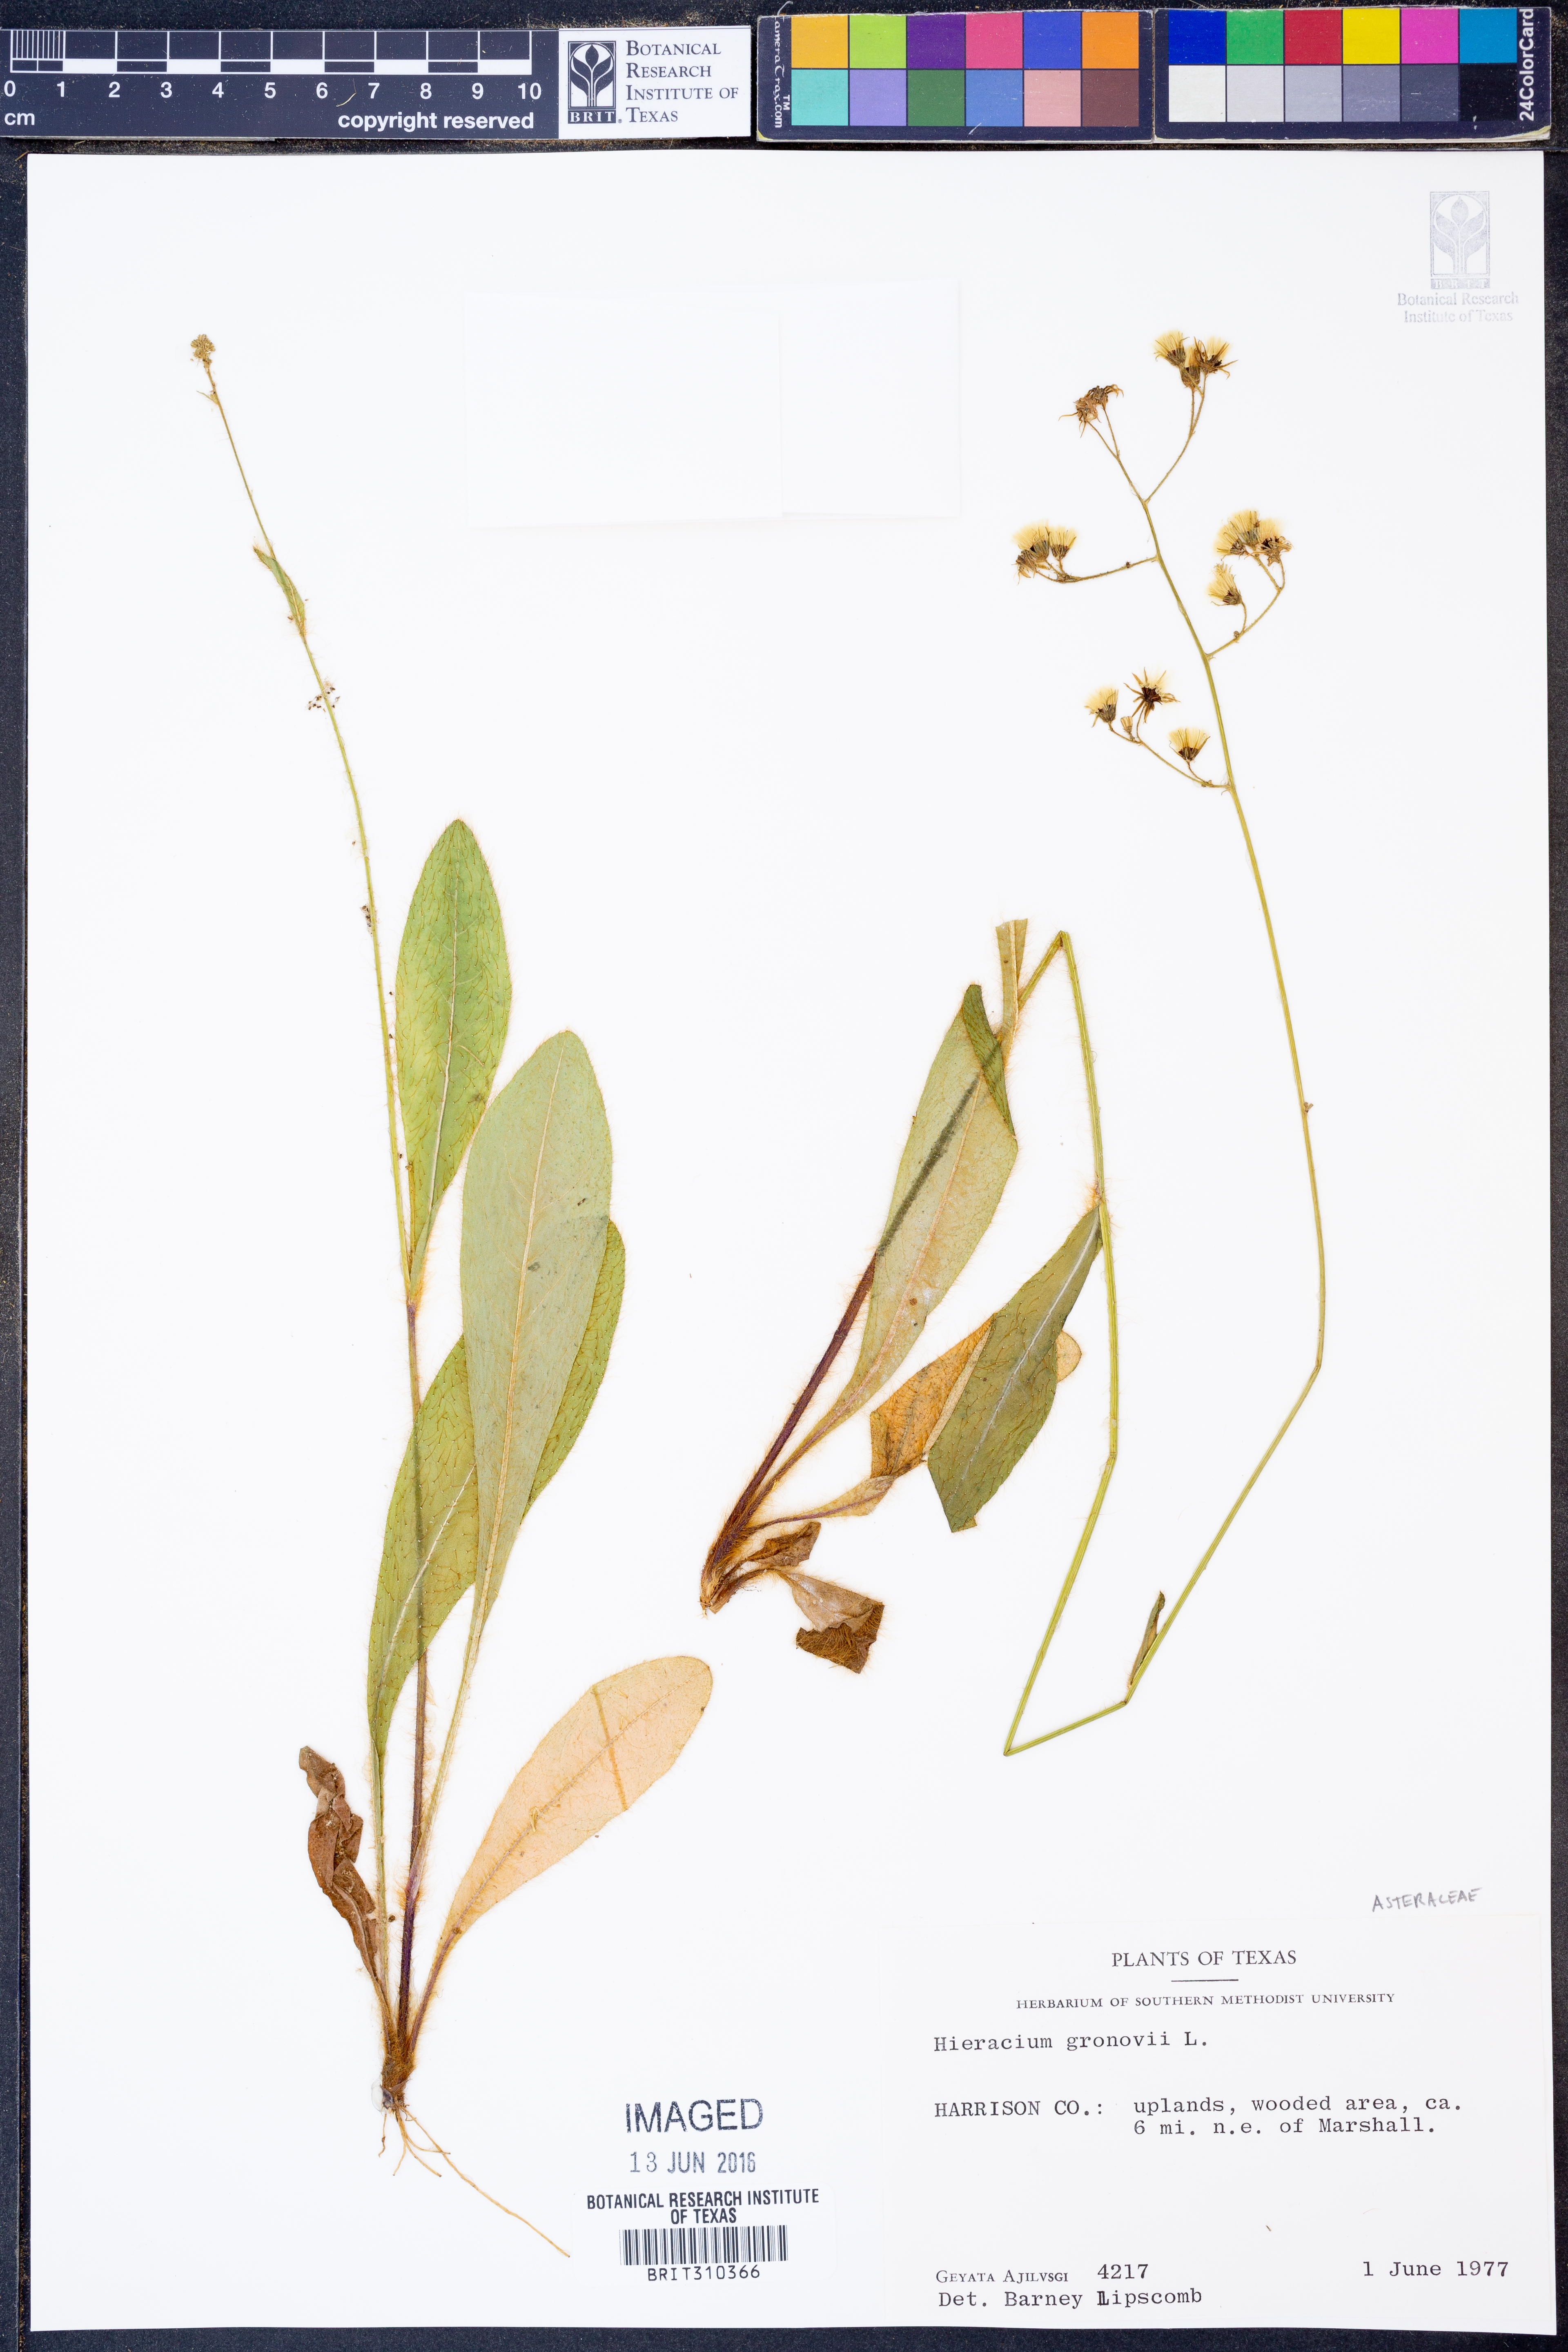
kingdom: Plantae
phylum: Tracheophyta
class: Magnoliopsida
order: Asterales
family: Asteraceae
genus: Hieracium
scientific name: Hieracium gronovii
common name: Beaked hawkweed
